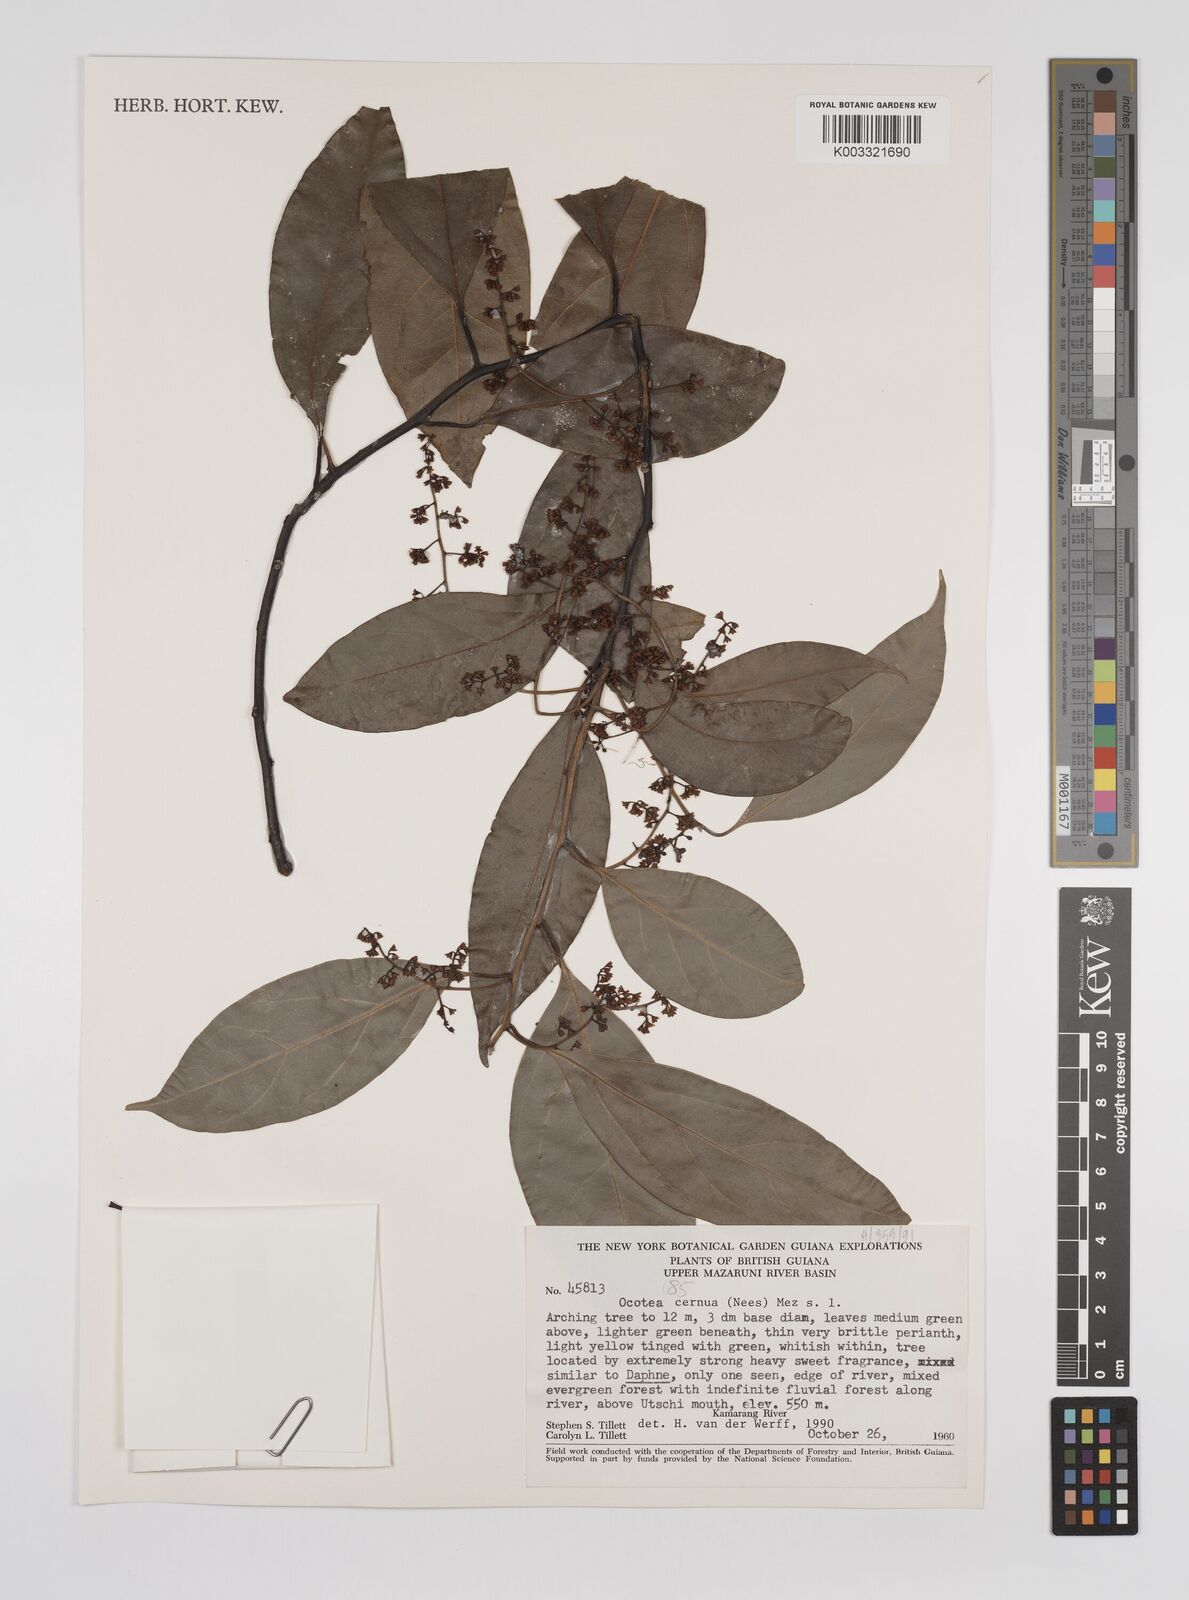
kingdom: Plantae
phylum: Tracheophyta
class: Magnoliopsida
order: Laurales
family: Lauraceae
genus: Ocotea
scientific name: Ocotea leptobotra
